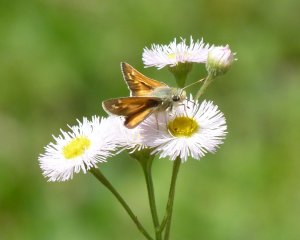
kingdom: Animalia
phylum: Arthropoda
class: Insecta
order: Lepidoptera
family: Hesperiidae
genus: Hesperia
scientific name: Hesperia comma
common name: Western Branded Skipper
